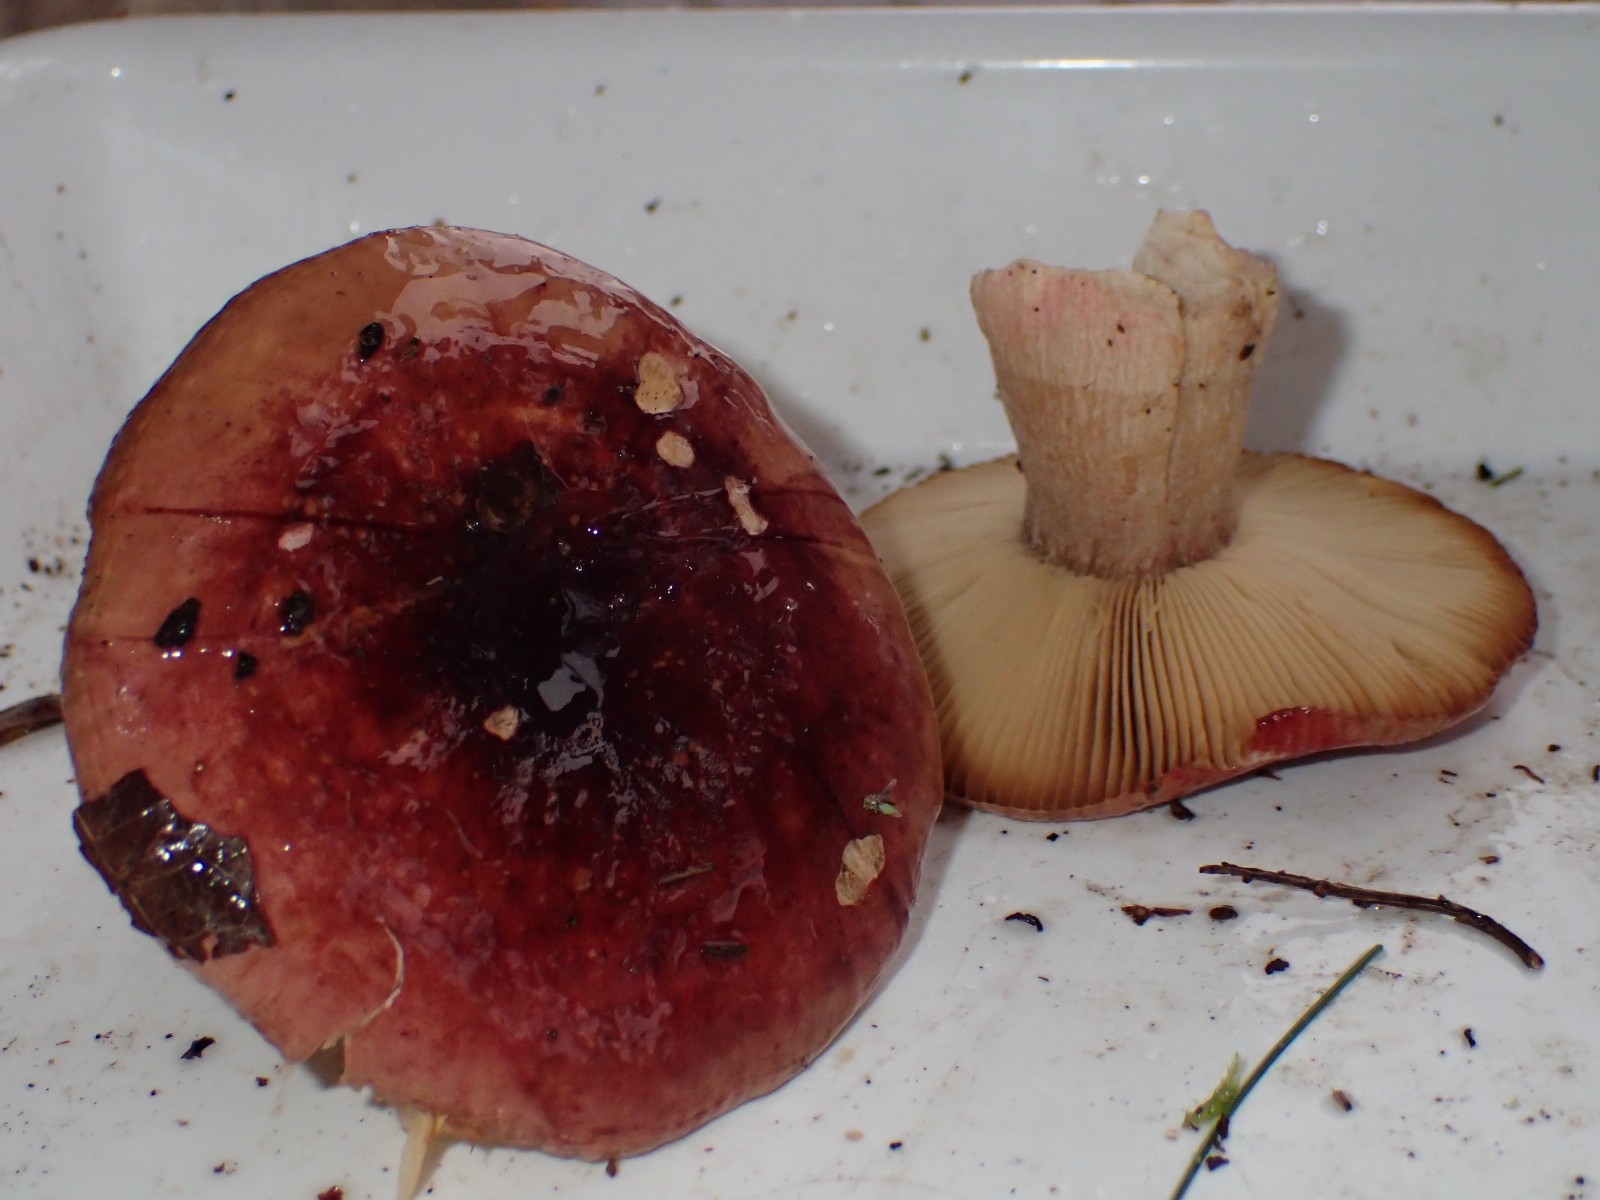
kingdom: Fungi
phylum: Basidiomycota
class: Agaricomycetes
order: Russulales
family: Russulaceae
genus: Russula
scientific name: Russula xerampelina
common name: hummer-skørhat
